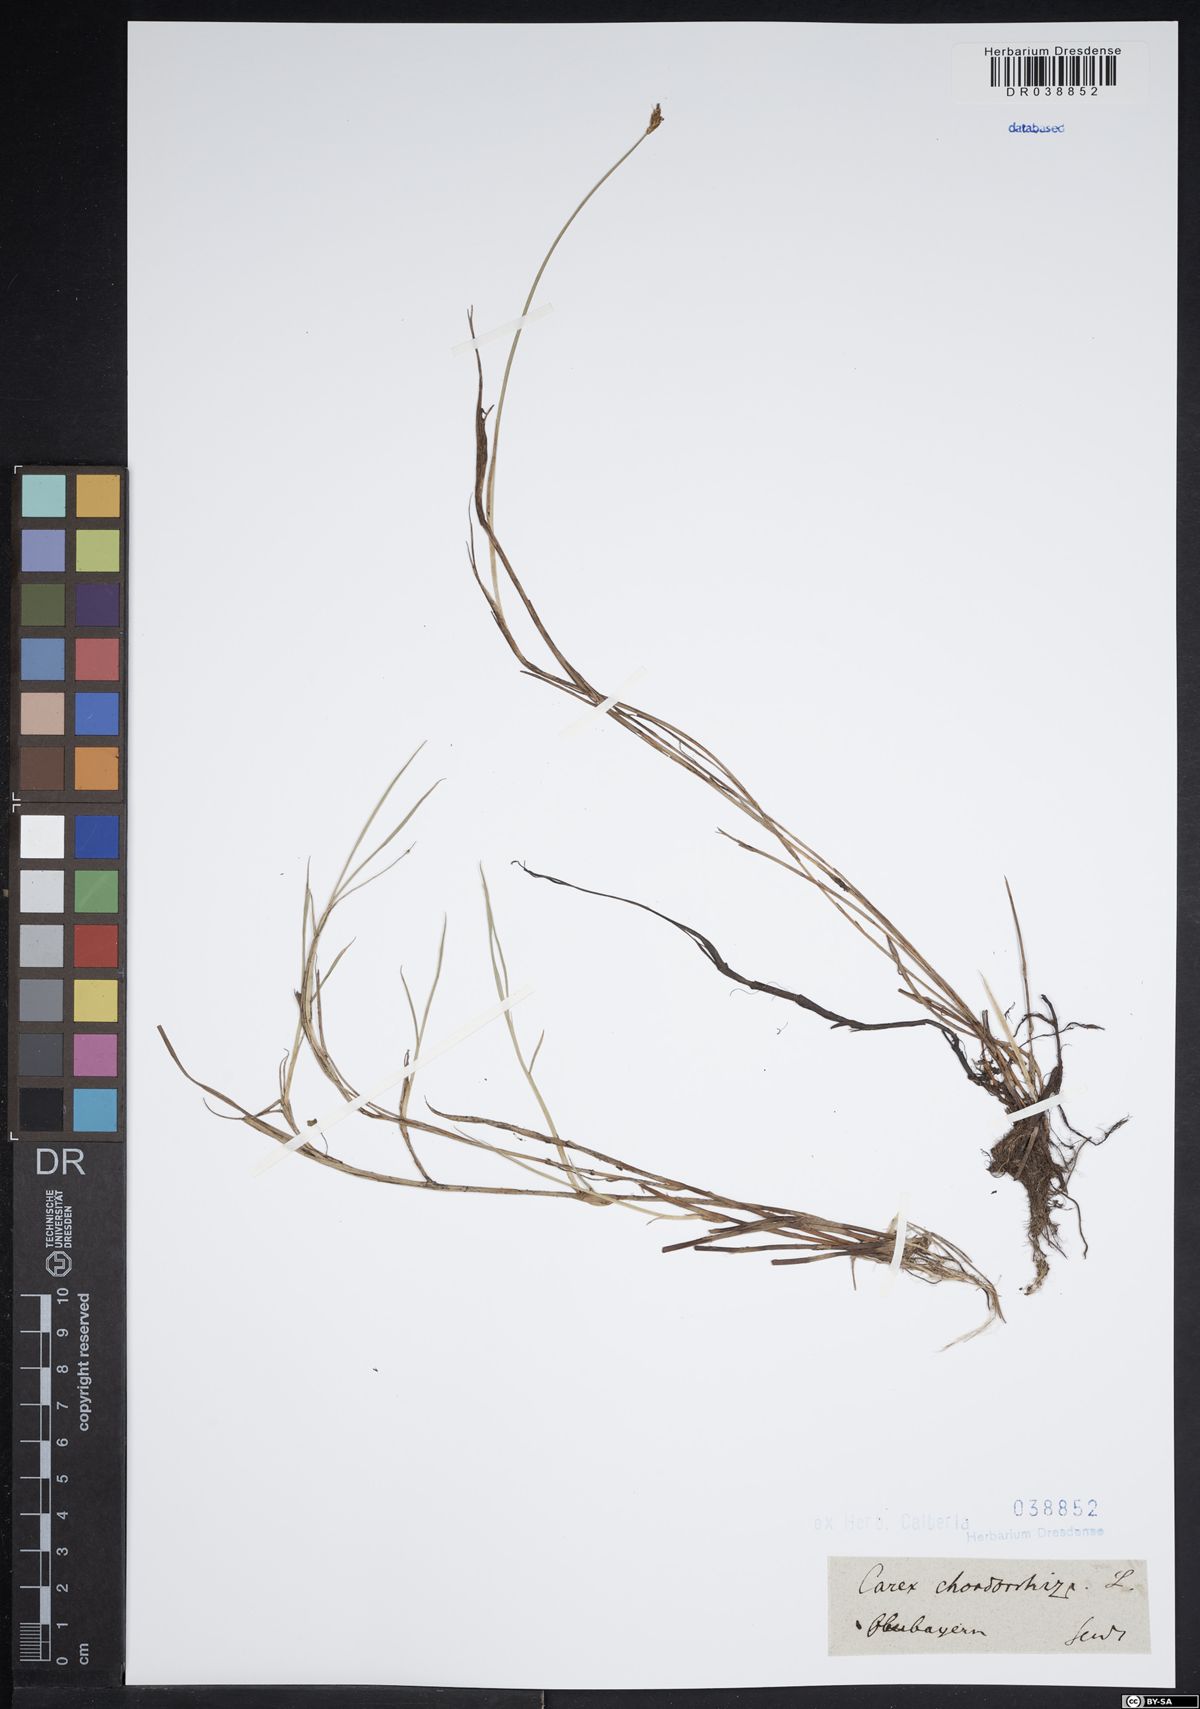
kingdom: Plantae
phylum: Tracheophyta
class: Liliopsida
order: Poales
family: Cyperaceae
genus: Carex
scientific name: Carex chordorrhiza
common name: String sedge
